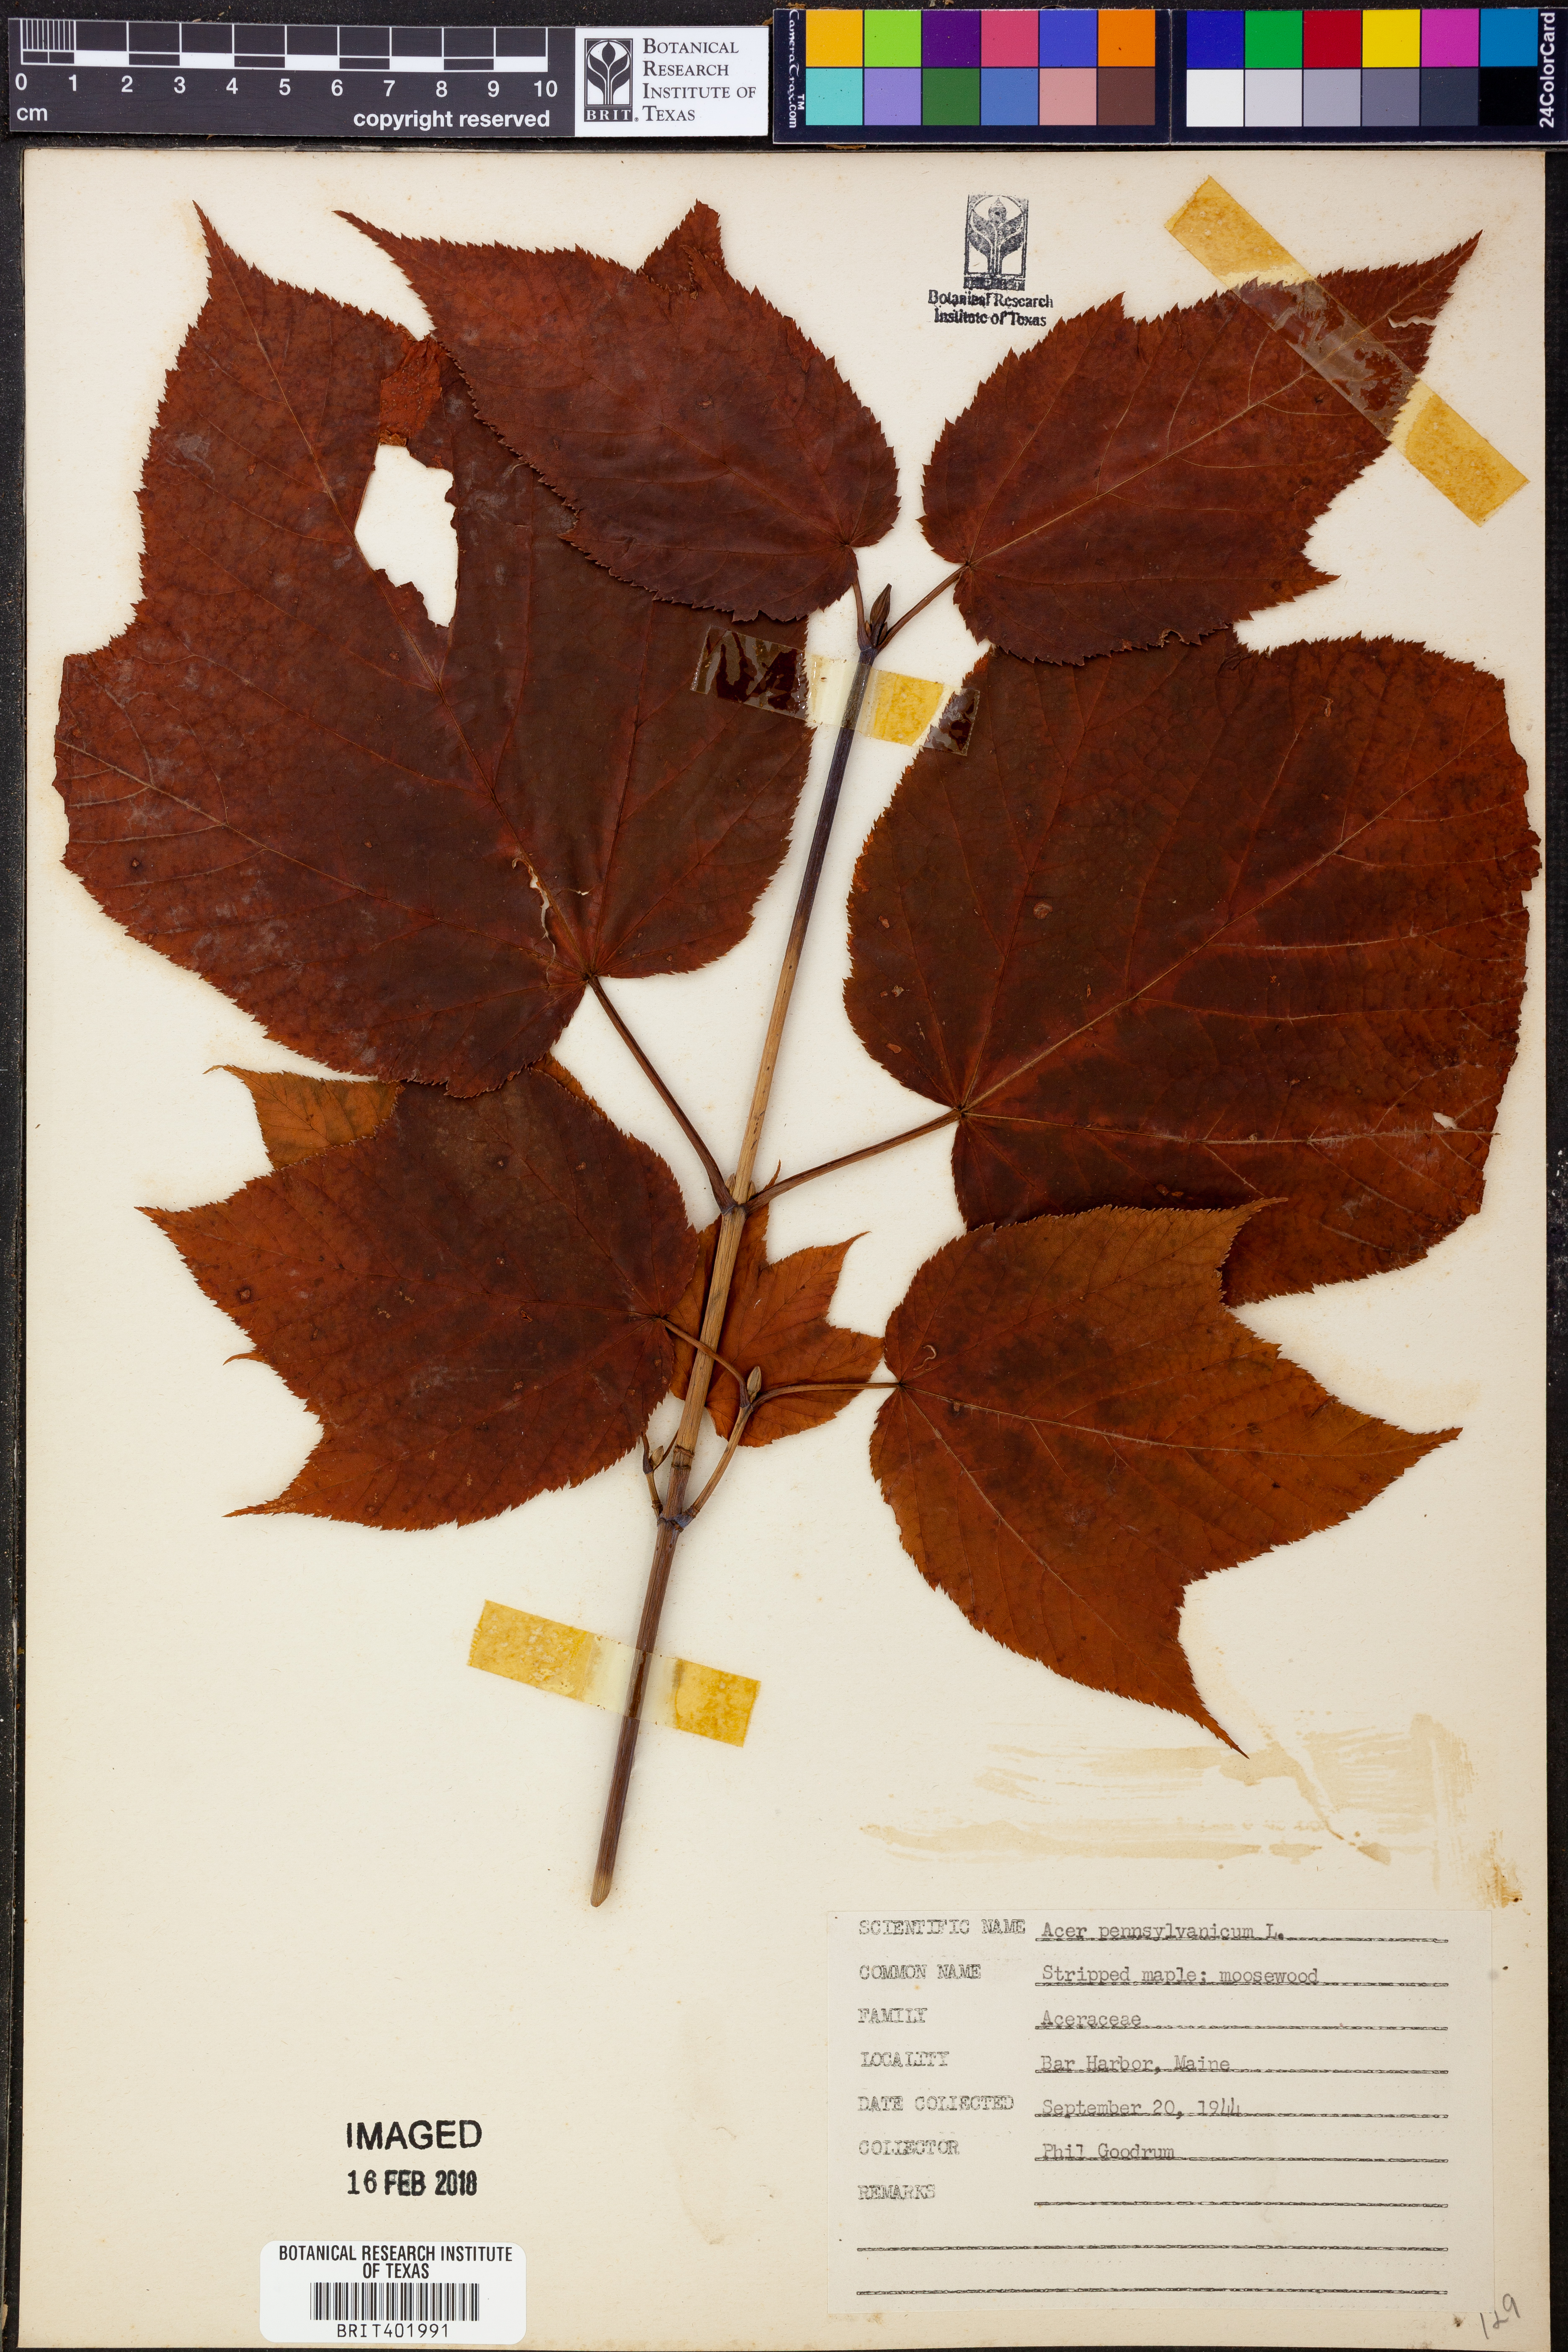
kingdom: Plantae
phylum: Tracheophyta
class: Magnoliopsida
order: Sapindales
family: Sapindaceae
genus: Acer
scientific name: Acer pensylvanicum
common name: Moosewood
